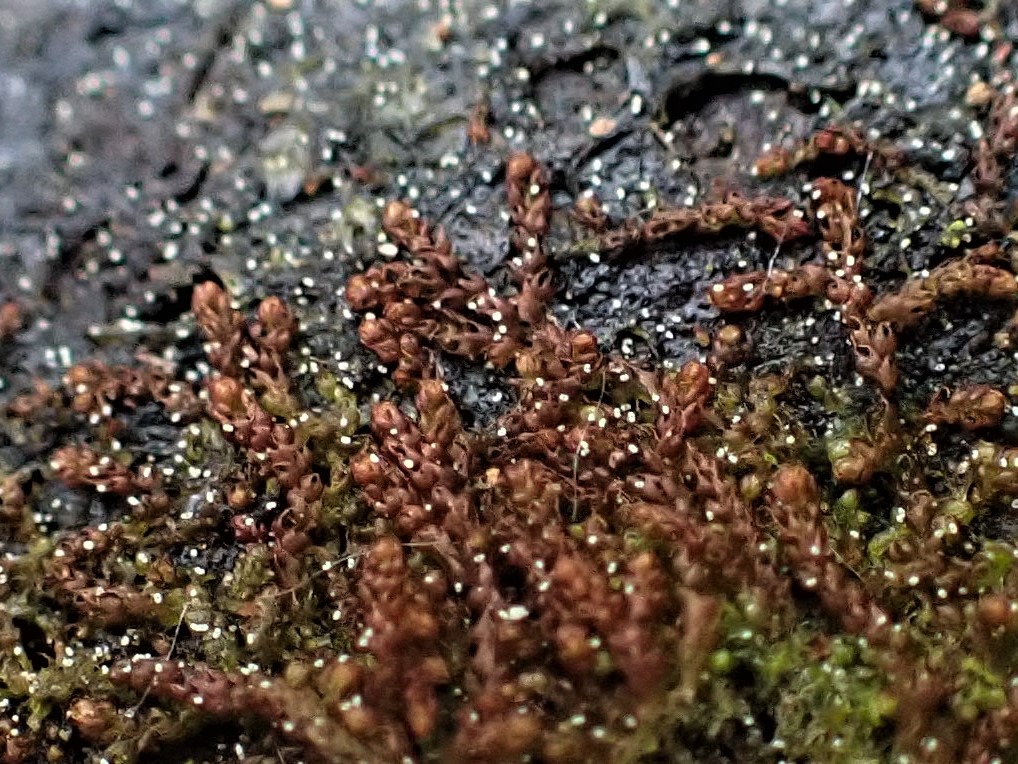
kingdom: Plantae
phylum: Marchantiophyta
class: Jungermanniopsida
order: Jungermanniales
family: Cephaloziaceae
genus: Nowellia
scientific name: Nowellia curvifolia
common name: Krumbladet stødmos
